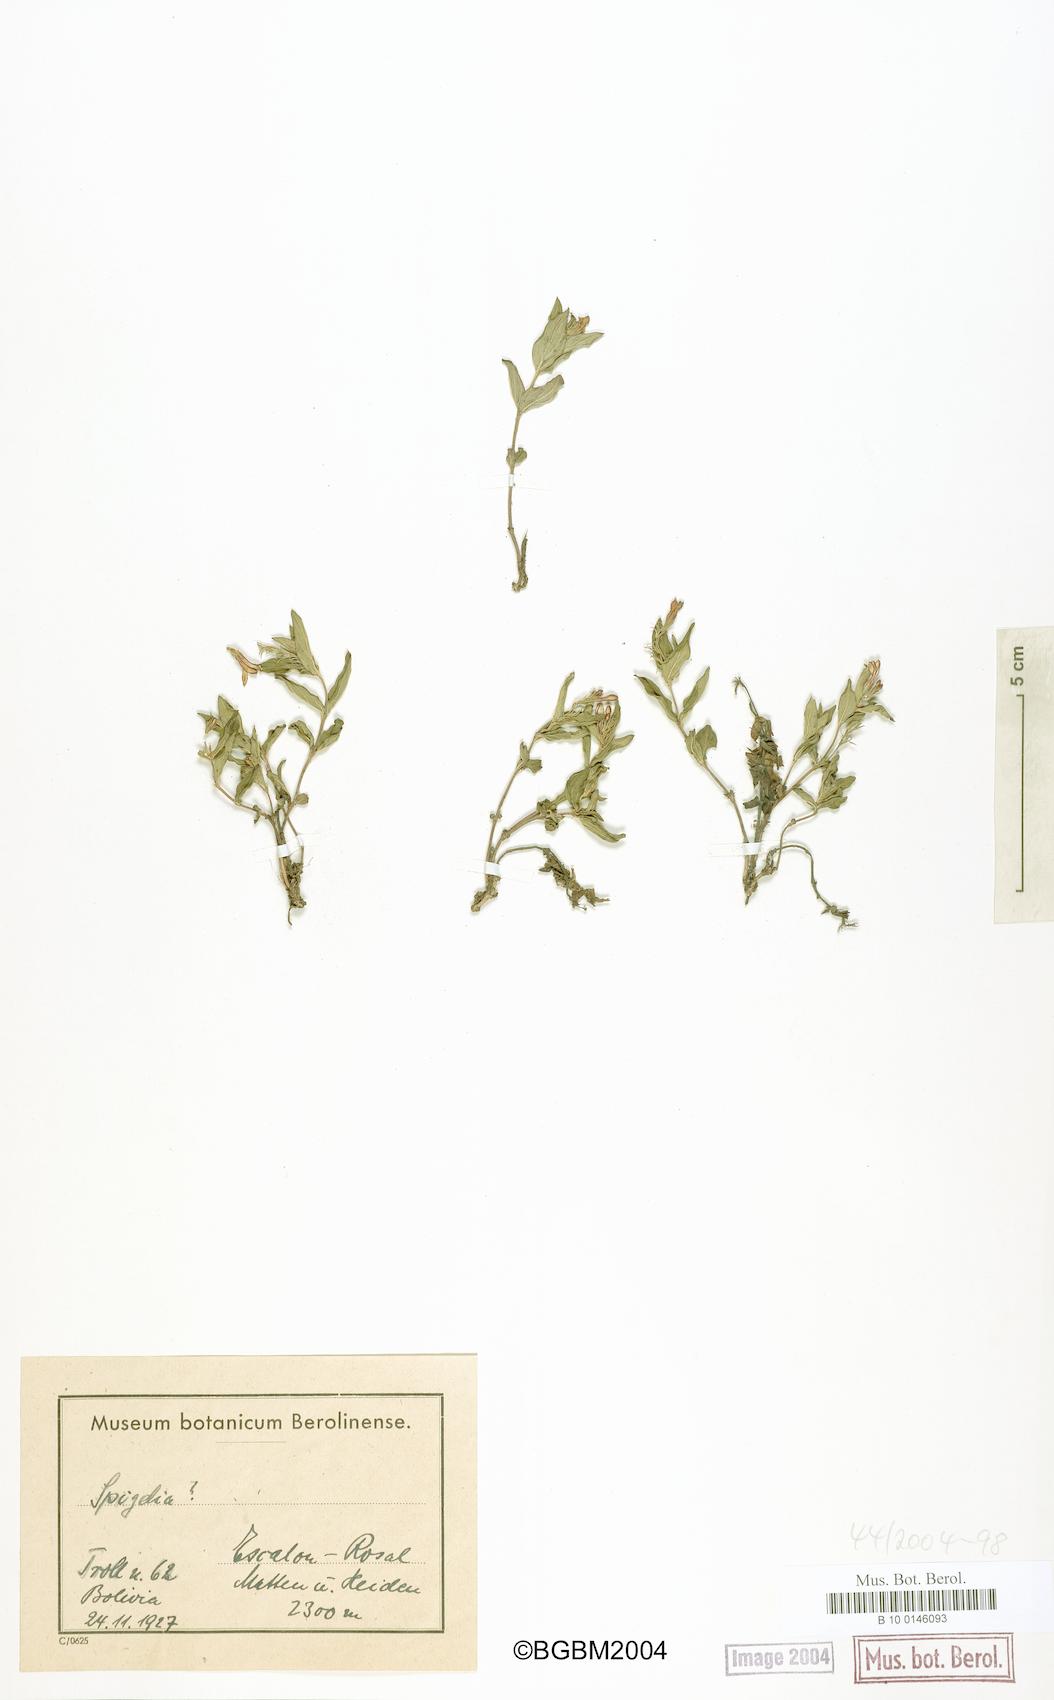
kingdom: Plantae
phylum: Tracheophyta
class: Magnoliopsida
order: Gentianales
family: Loganiaceae
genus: Spigelia
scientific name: Spigelia
